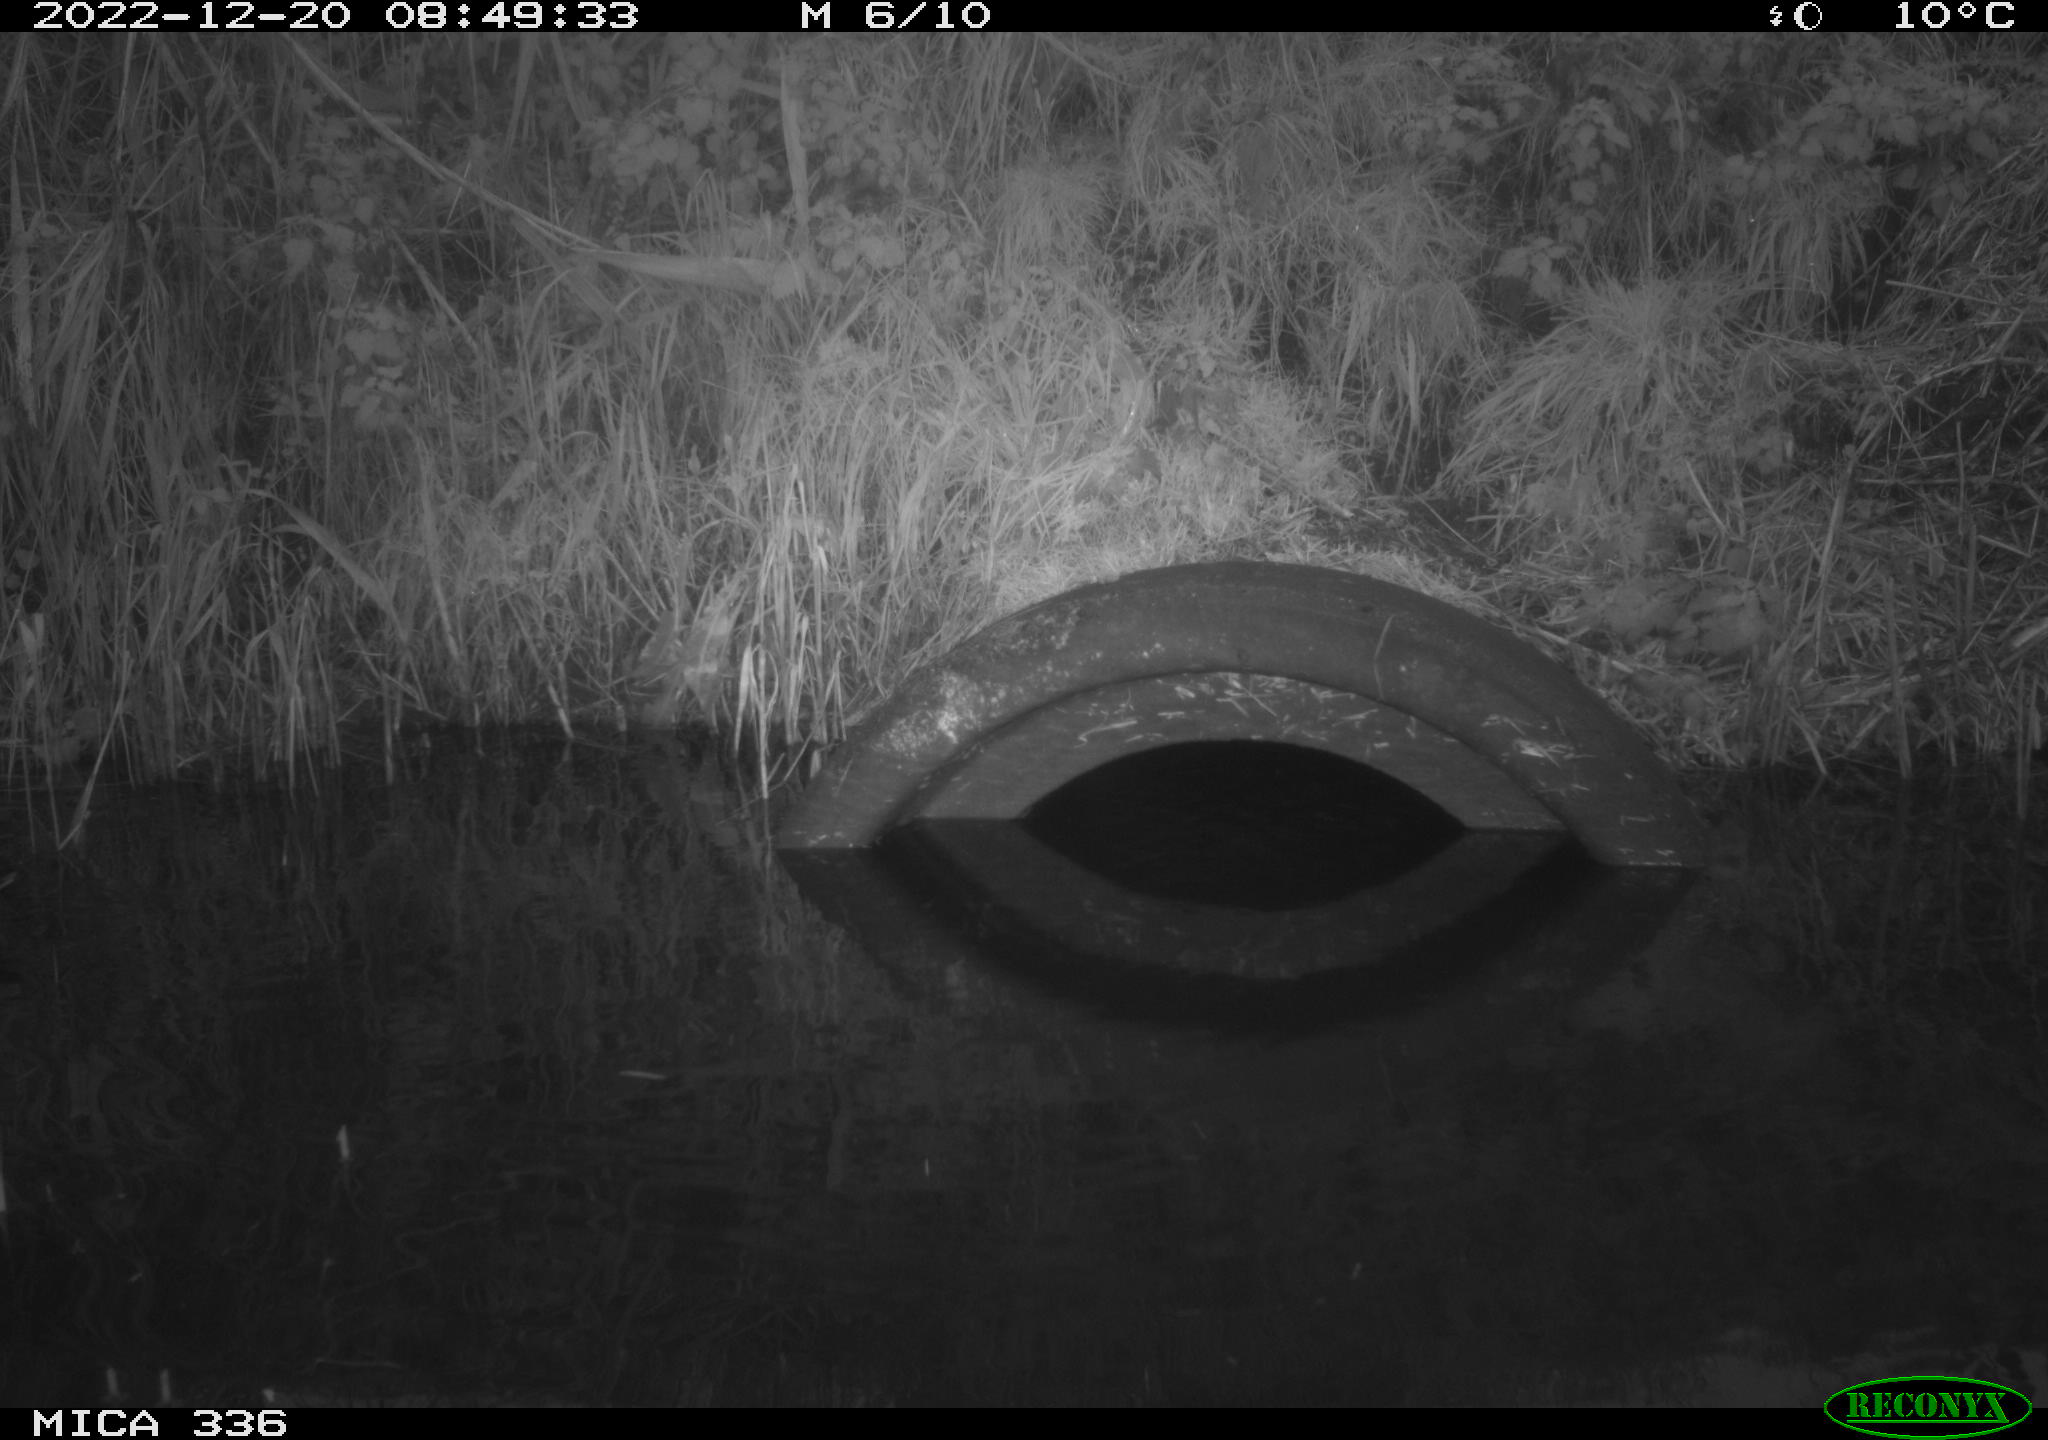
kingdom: Animalia
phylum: Chordata
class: Aves
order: Gruiformes
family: Rallidae
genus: Gallinula
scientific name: Gallinula chloropus
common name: Common moorhen
